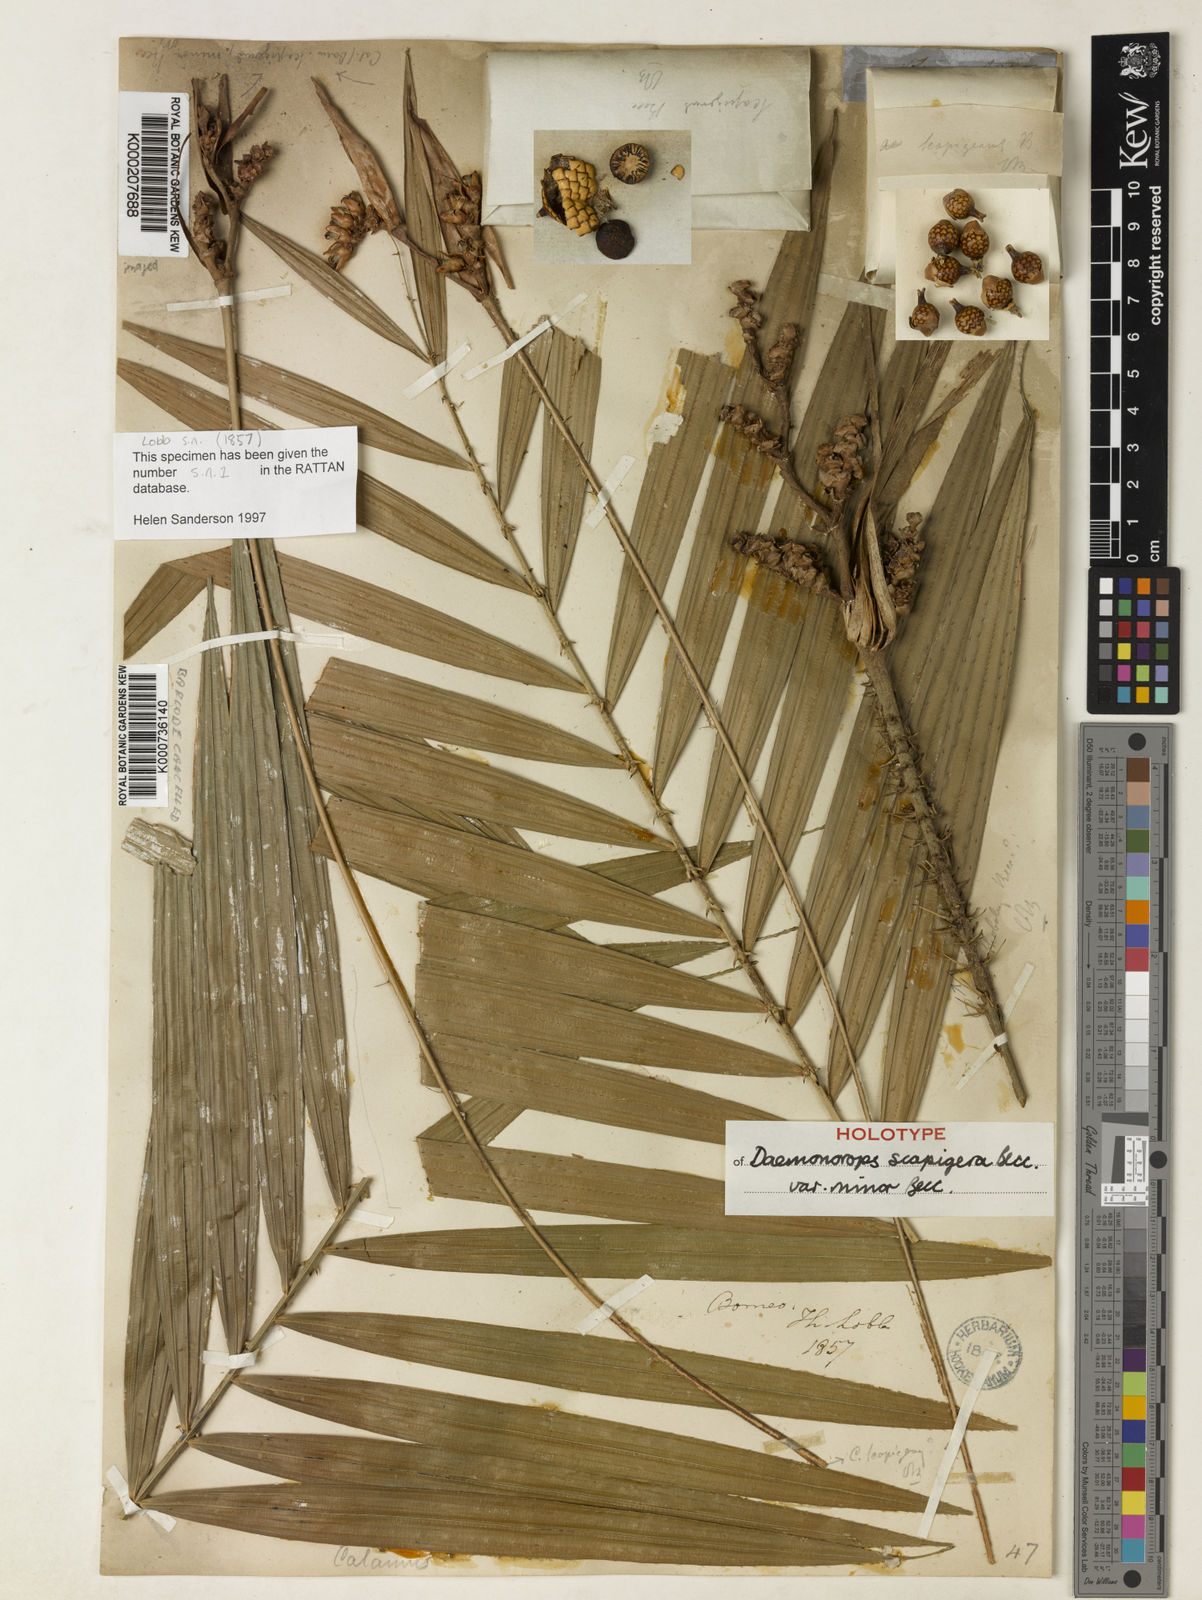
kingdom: Plantae
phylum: Tracheophyta
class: Liliopsida
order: Arecales
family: Arecaceae
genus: Calamus
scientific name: Calamus scapigerus
